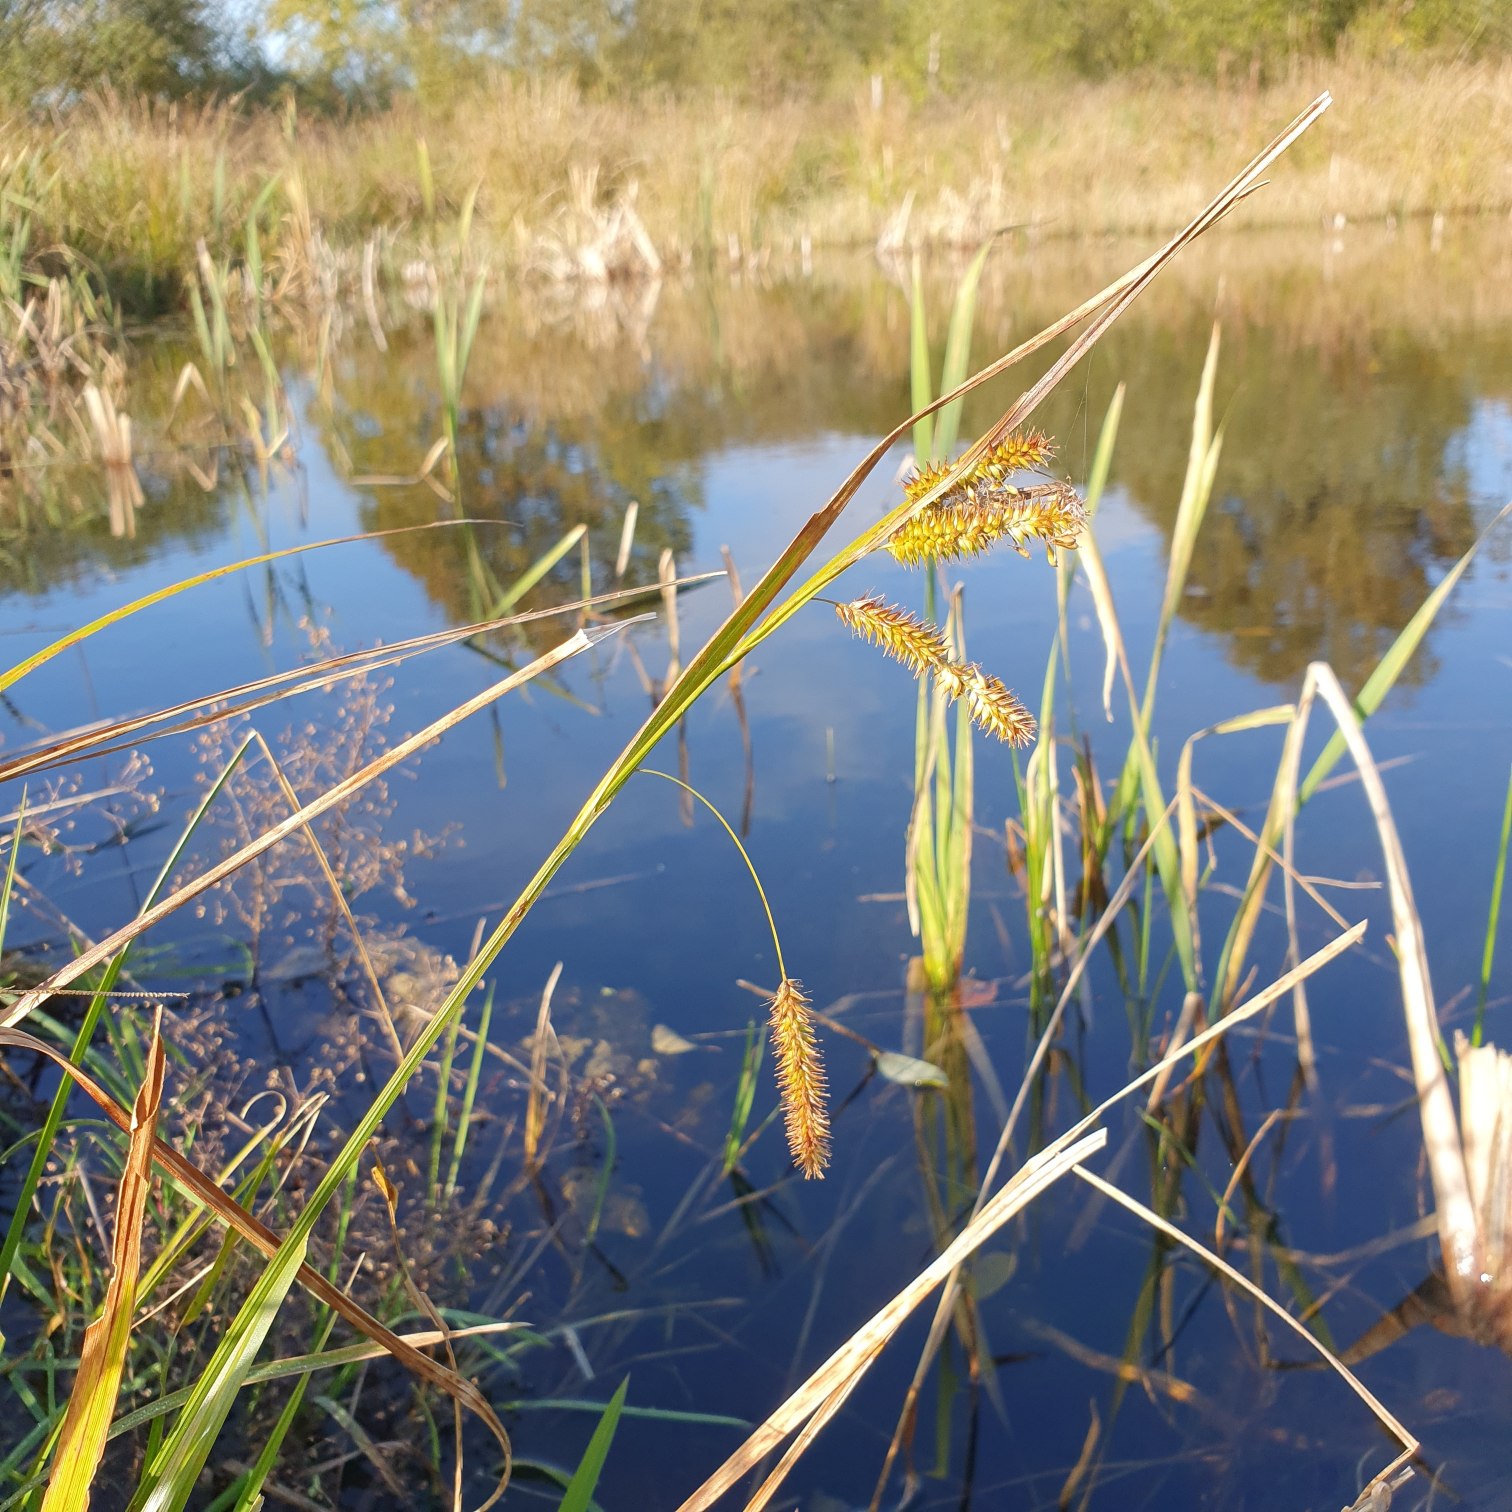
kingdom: Plantae
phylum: Tracheophyta
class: Liliopsida
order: Poales
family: Cyperaceae
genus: Carex
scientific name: Carex pseudocyperus
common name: Knippe-star
